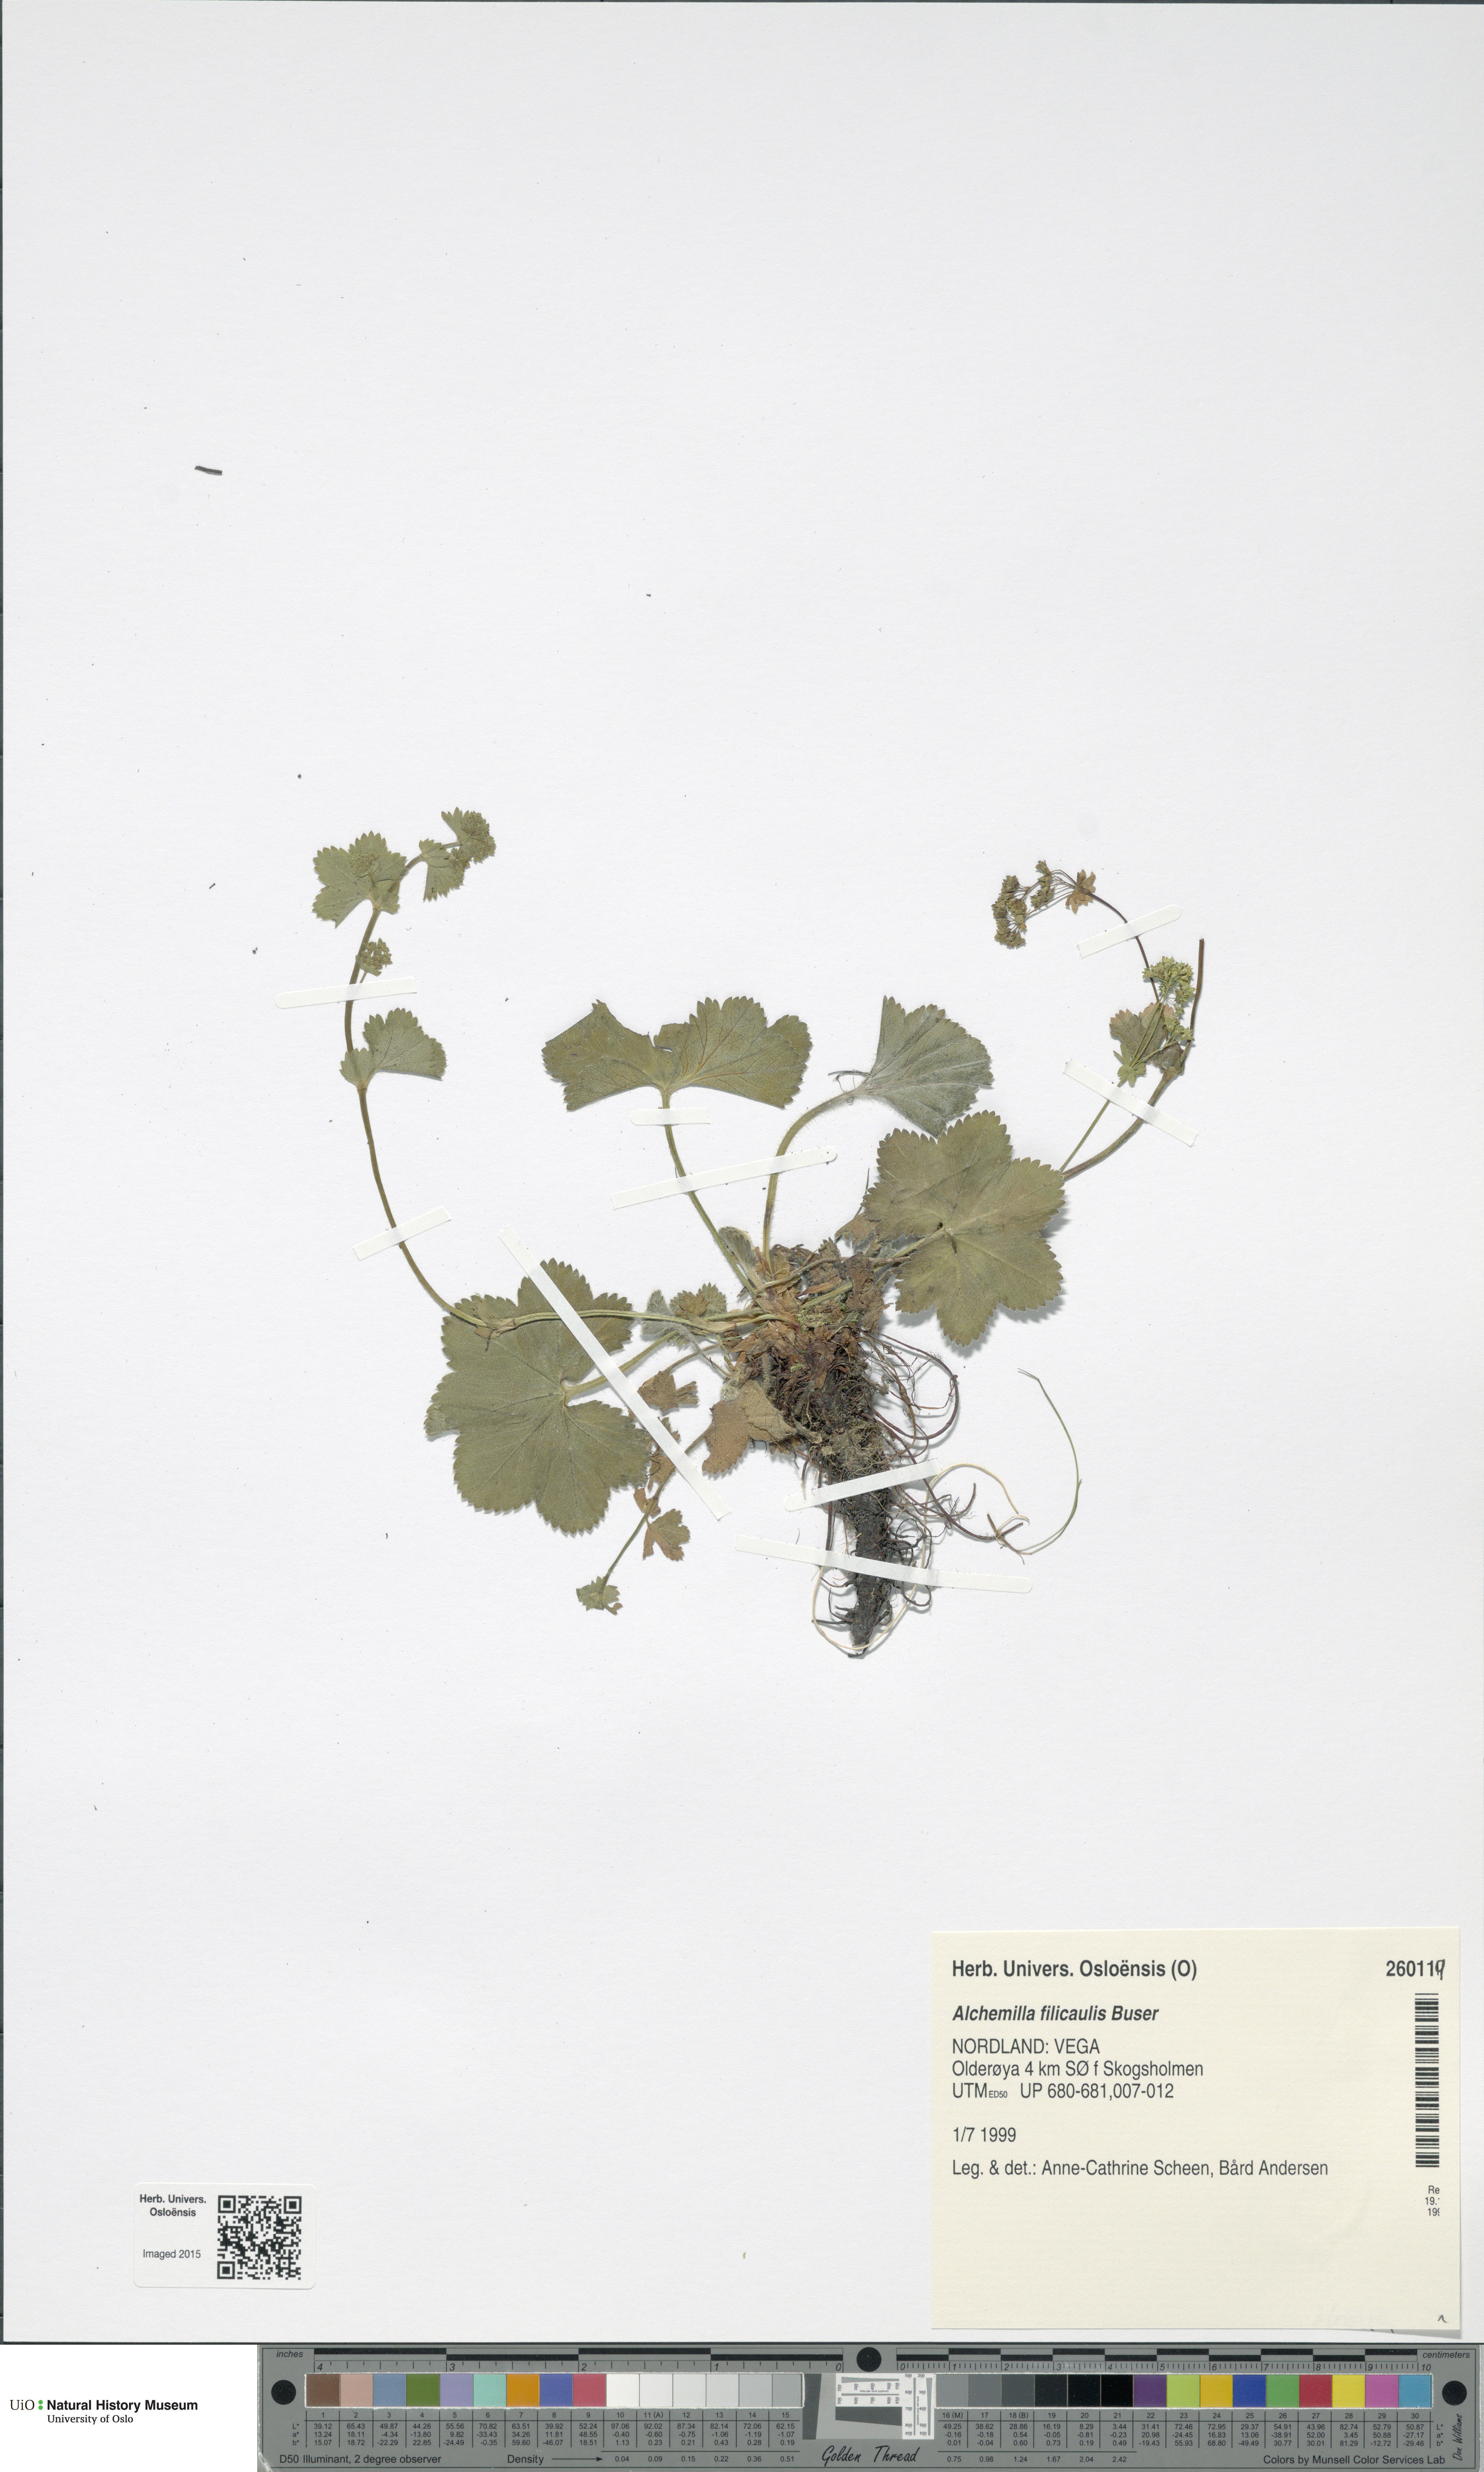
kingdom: Plantae
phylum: Tracheophyta
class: Magnoliopsida
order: Rosales
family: Rosaceae
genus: Alchemilla
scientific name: Alchemilla filicaulis
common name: Hairy lady's-mantle
